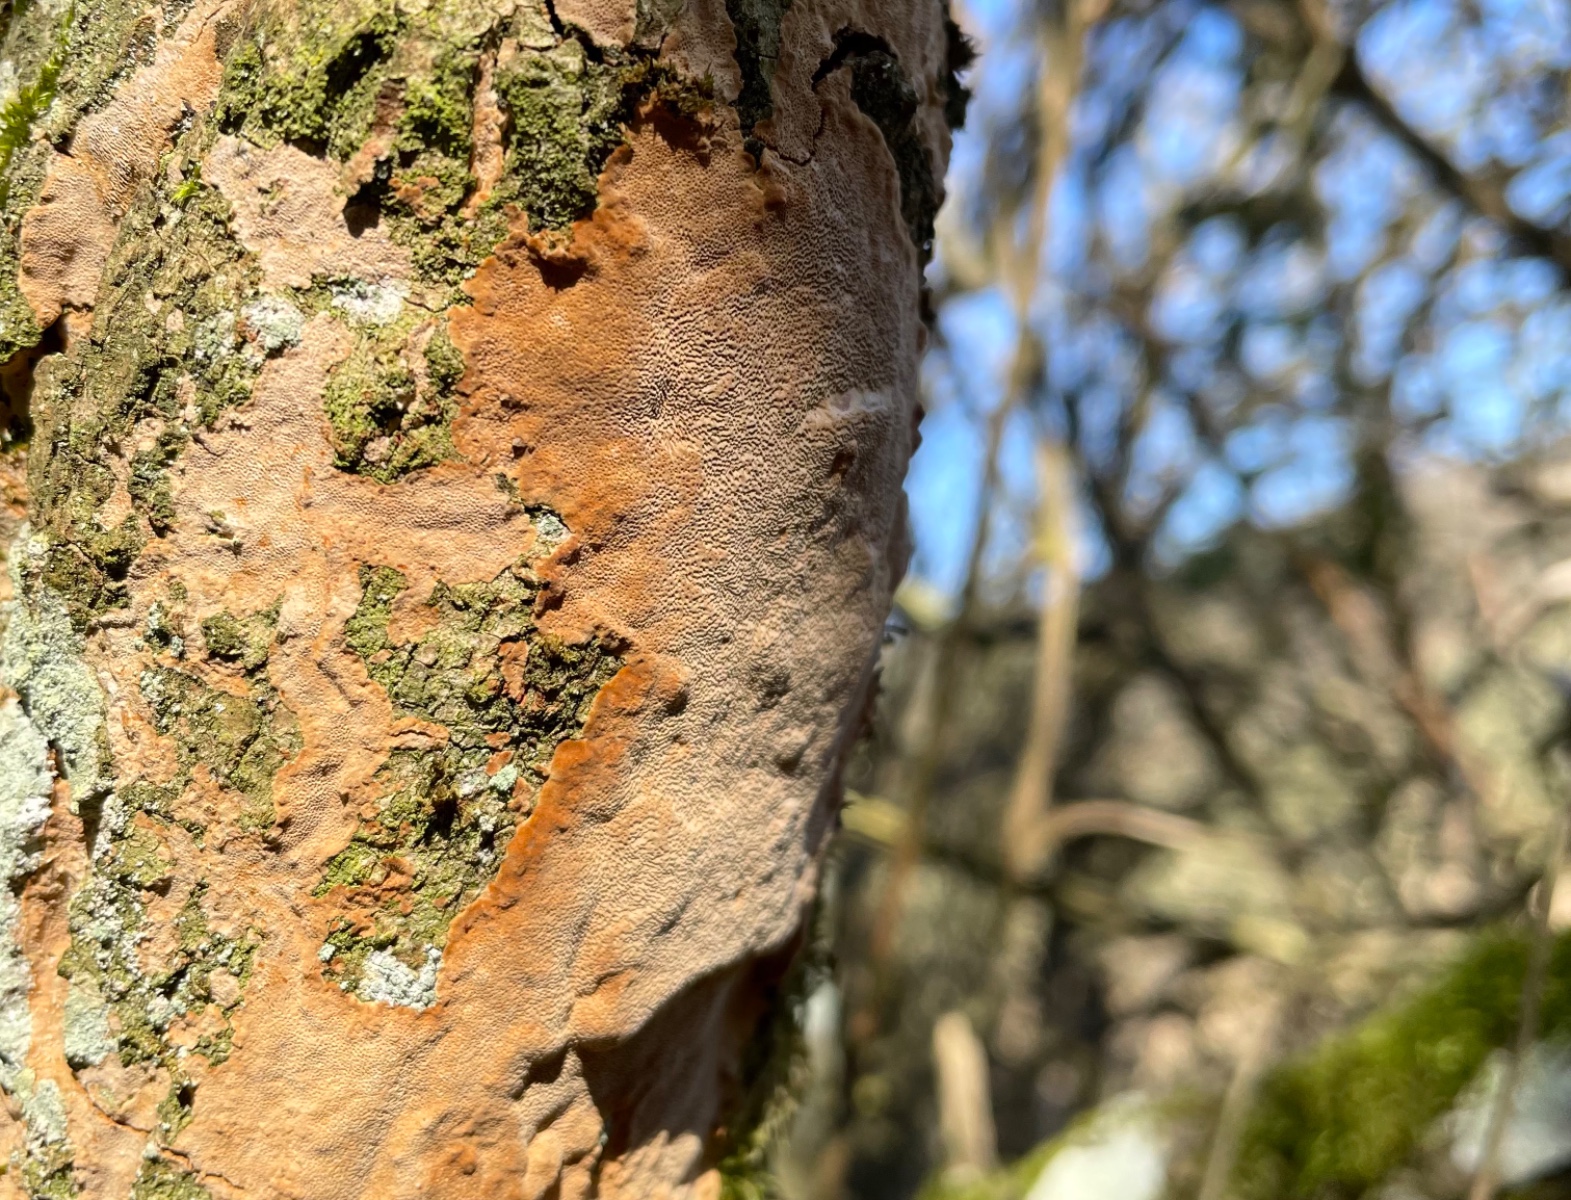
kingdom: Fungi
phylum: Basidiomycota
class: Agaricomycetes
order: Hymenochaetales
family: Hymenochaetaceae
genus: Fuscoporia
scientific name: Fuscoporia ferrea
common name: skorpe-ildporesvamp
